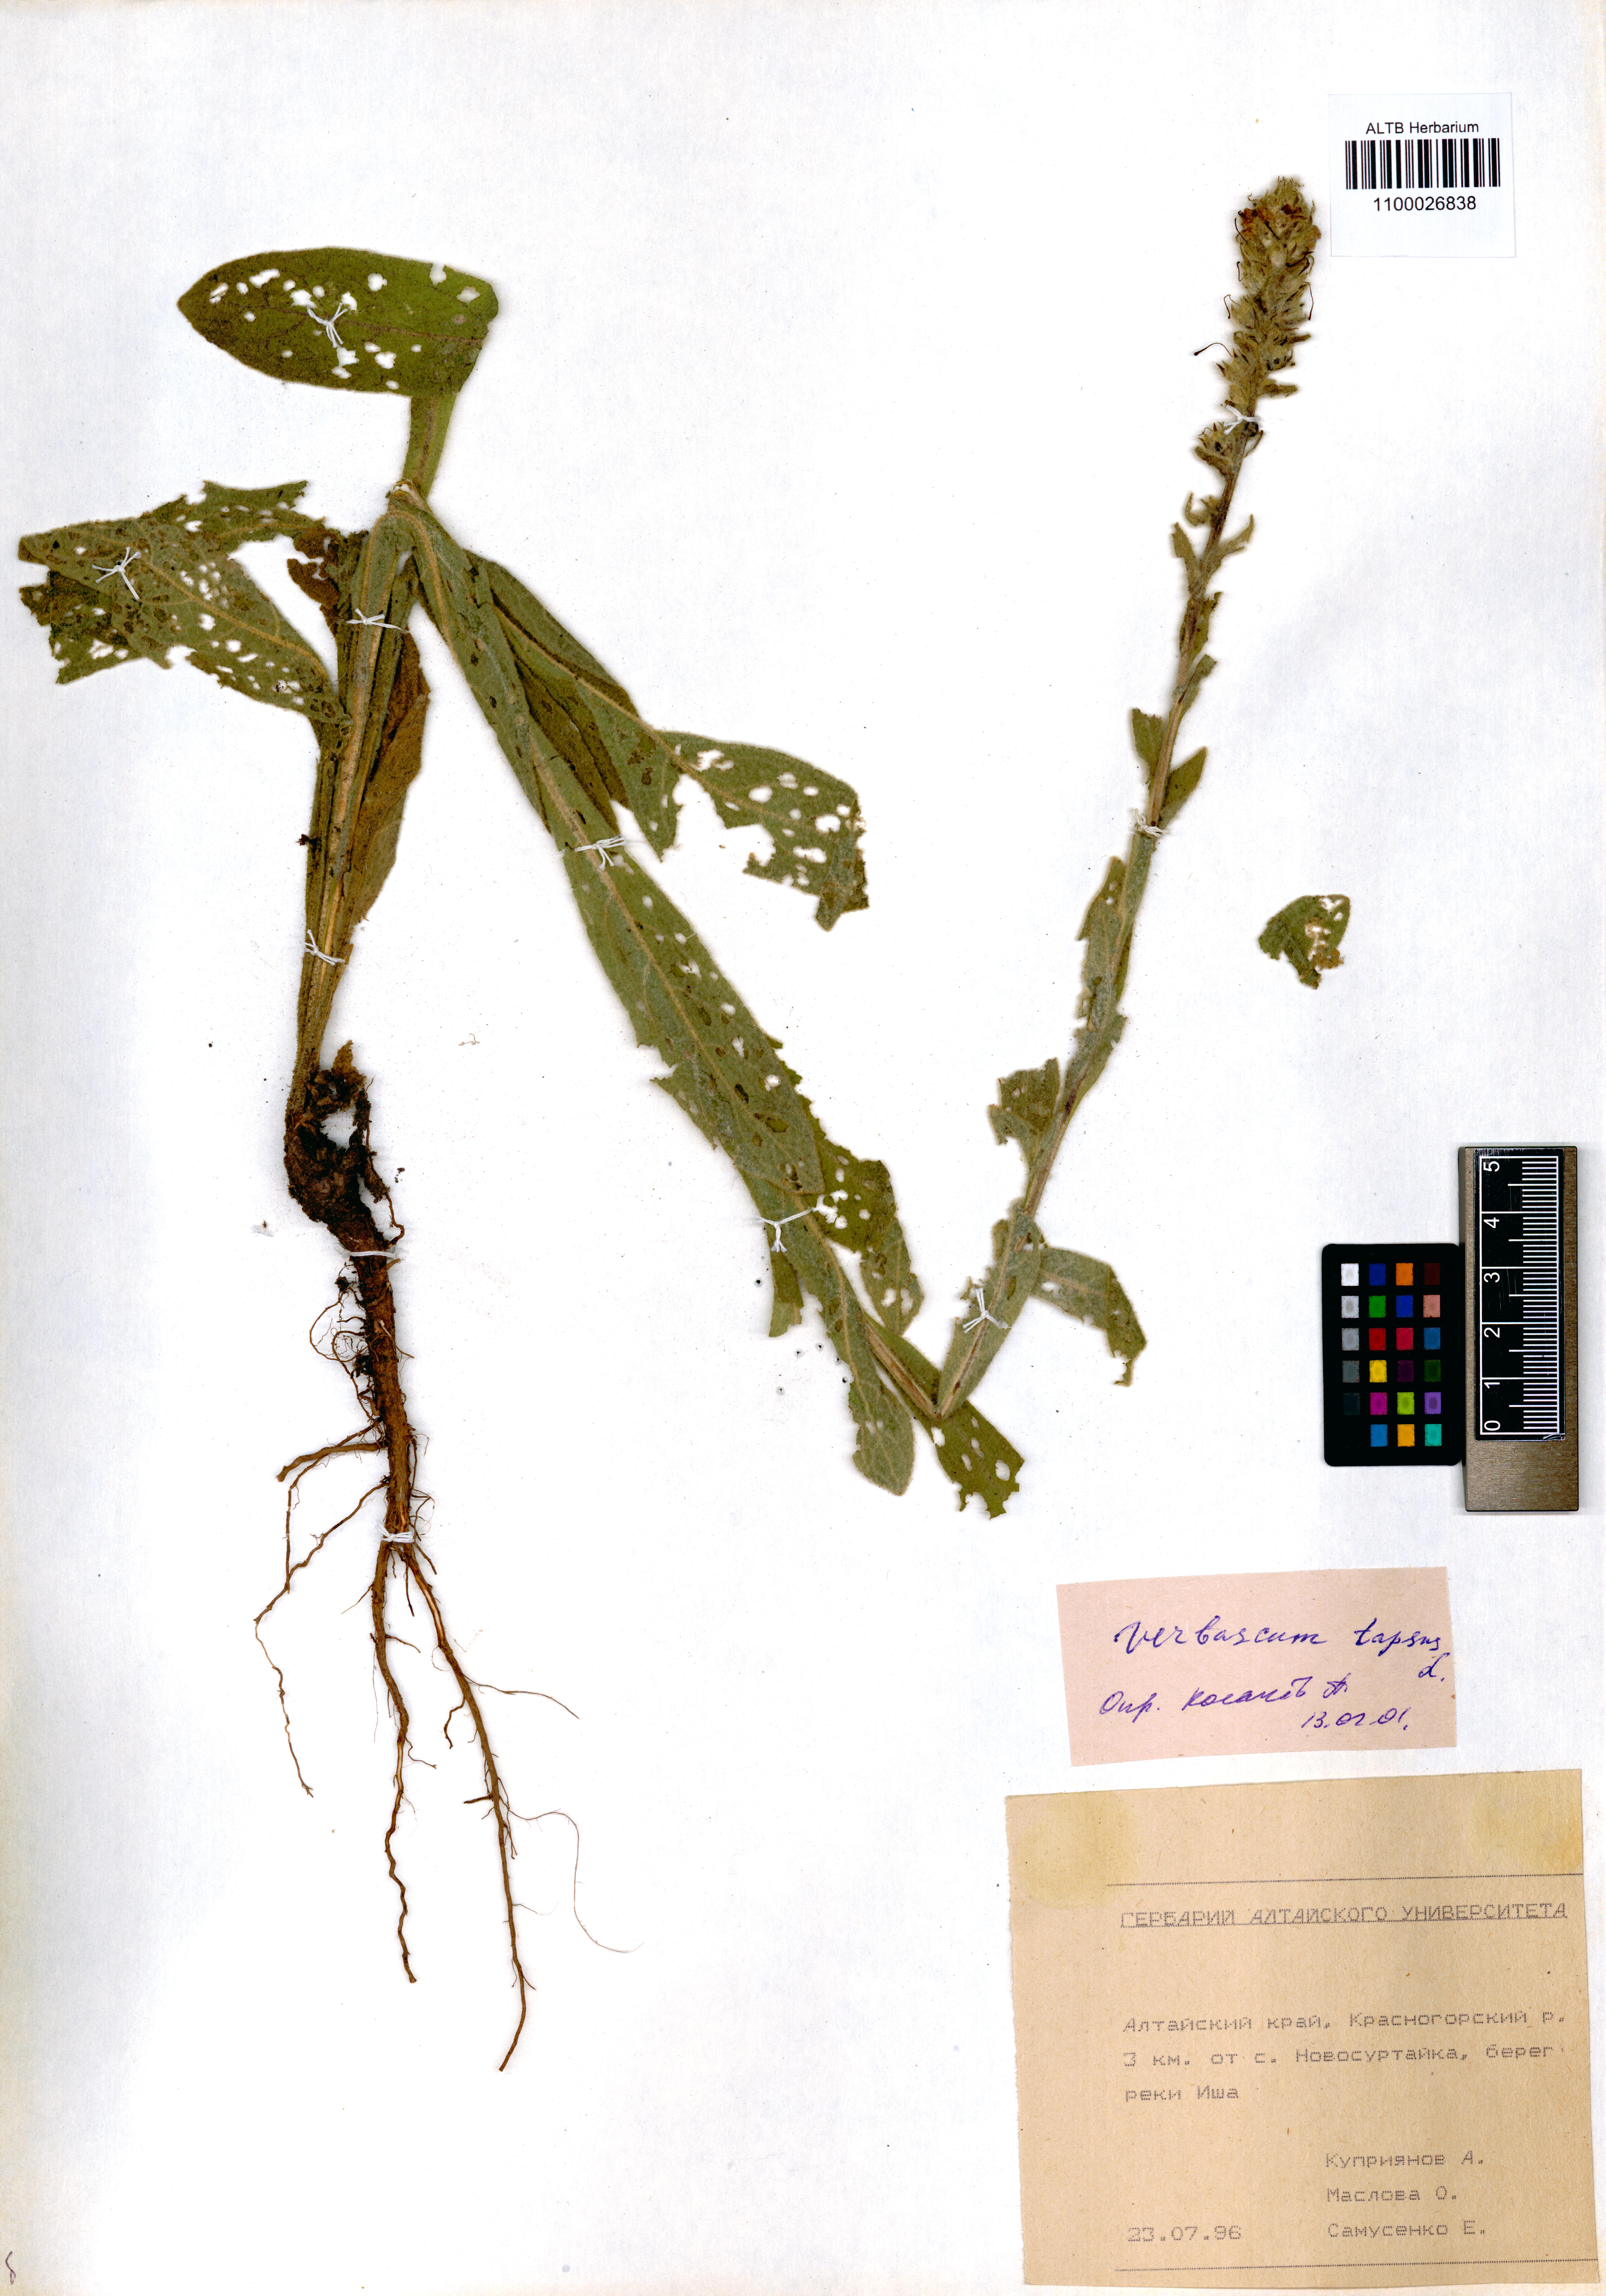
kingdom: Plantae
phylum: Tracheophyta
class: Magnoliopsida
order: Lamiales
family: Scrophulariaceae
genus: Verbascum
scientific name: Verbascum thapsus
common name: Common mullein
